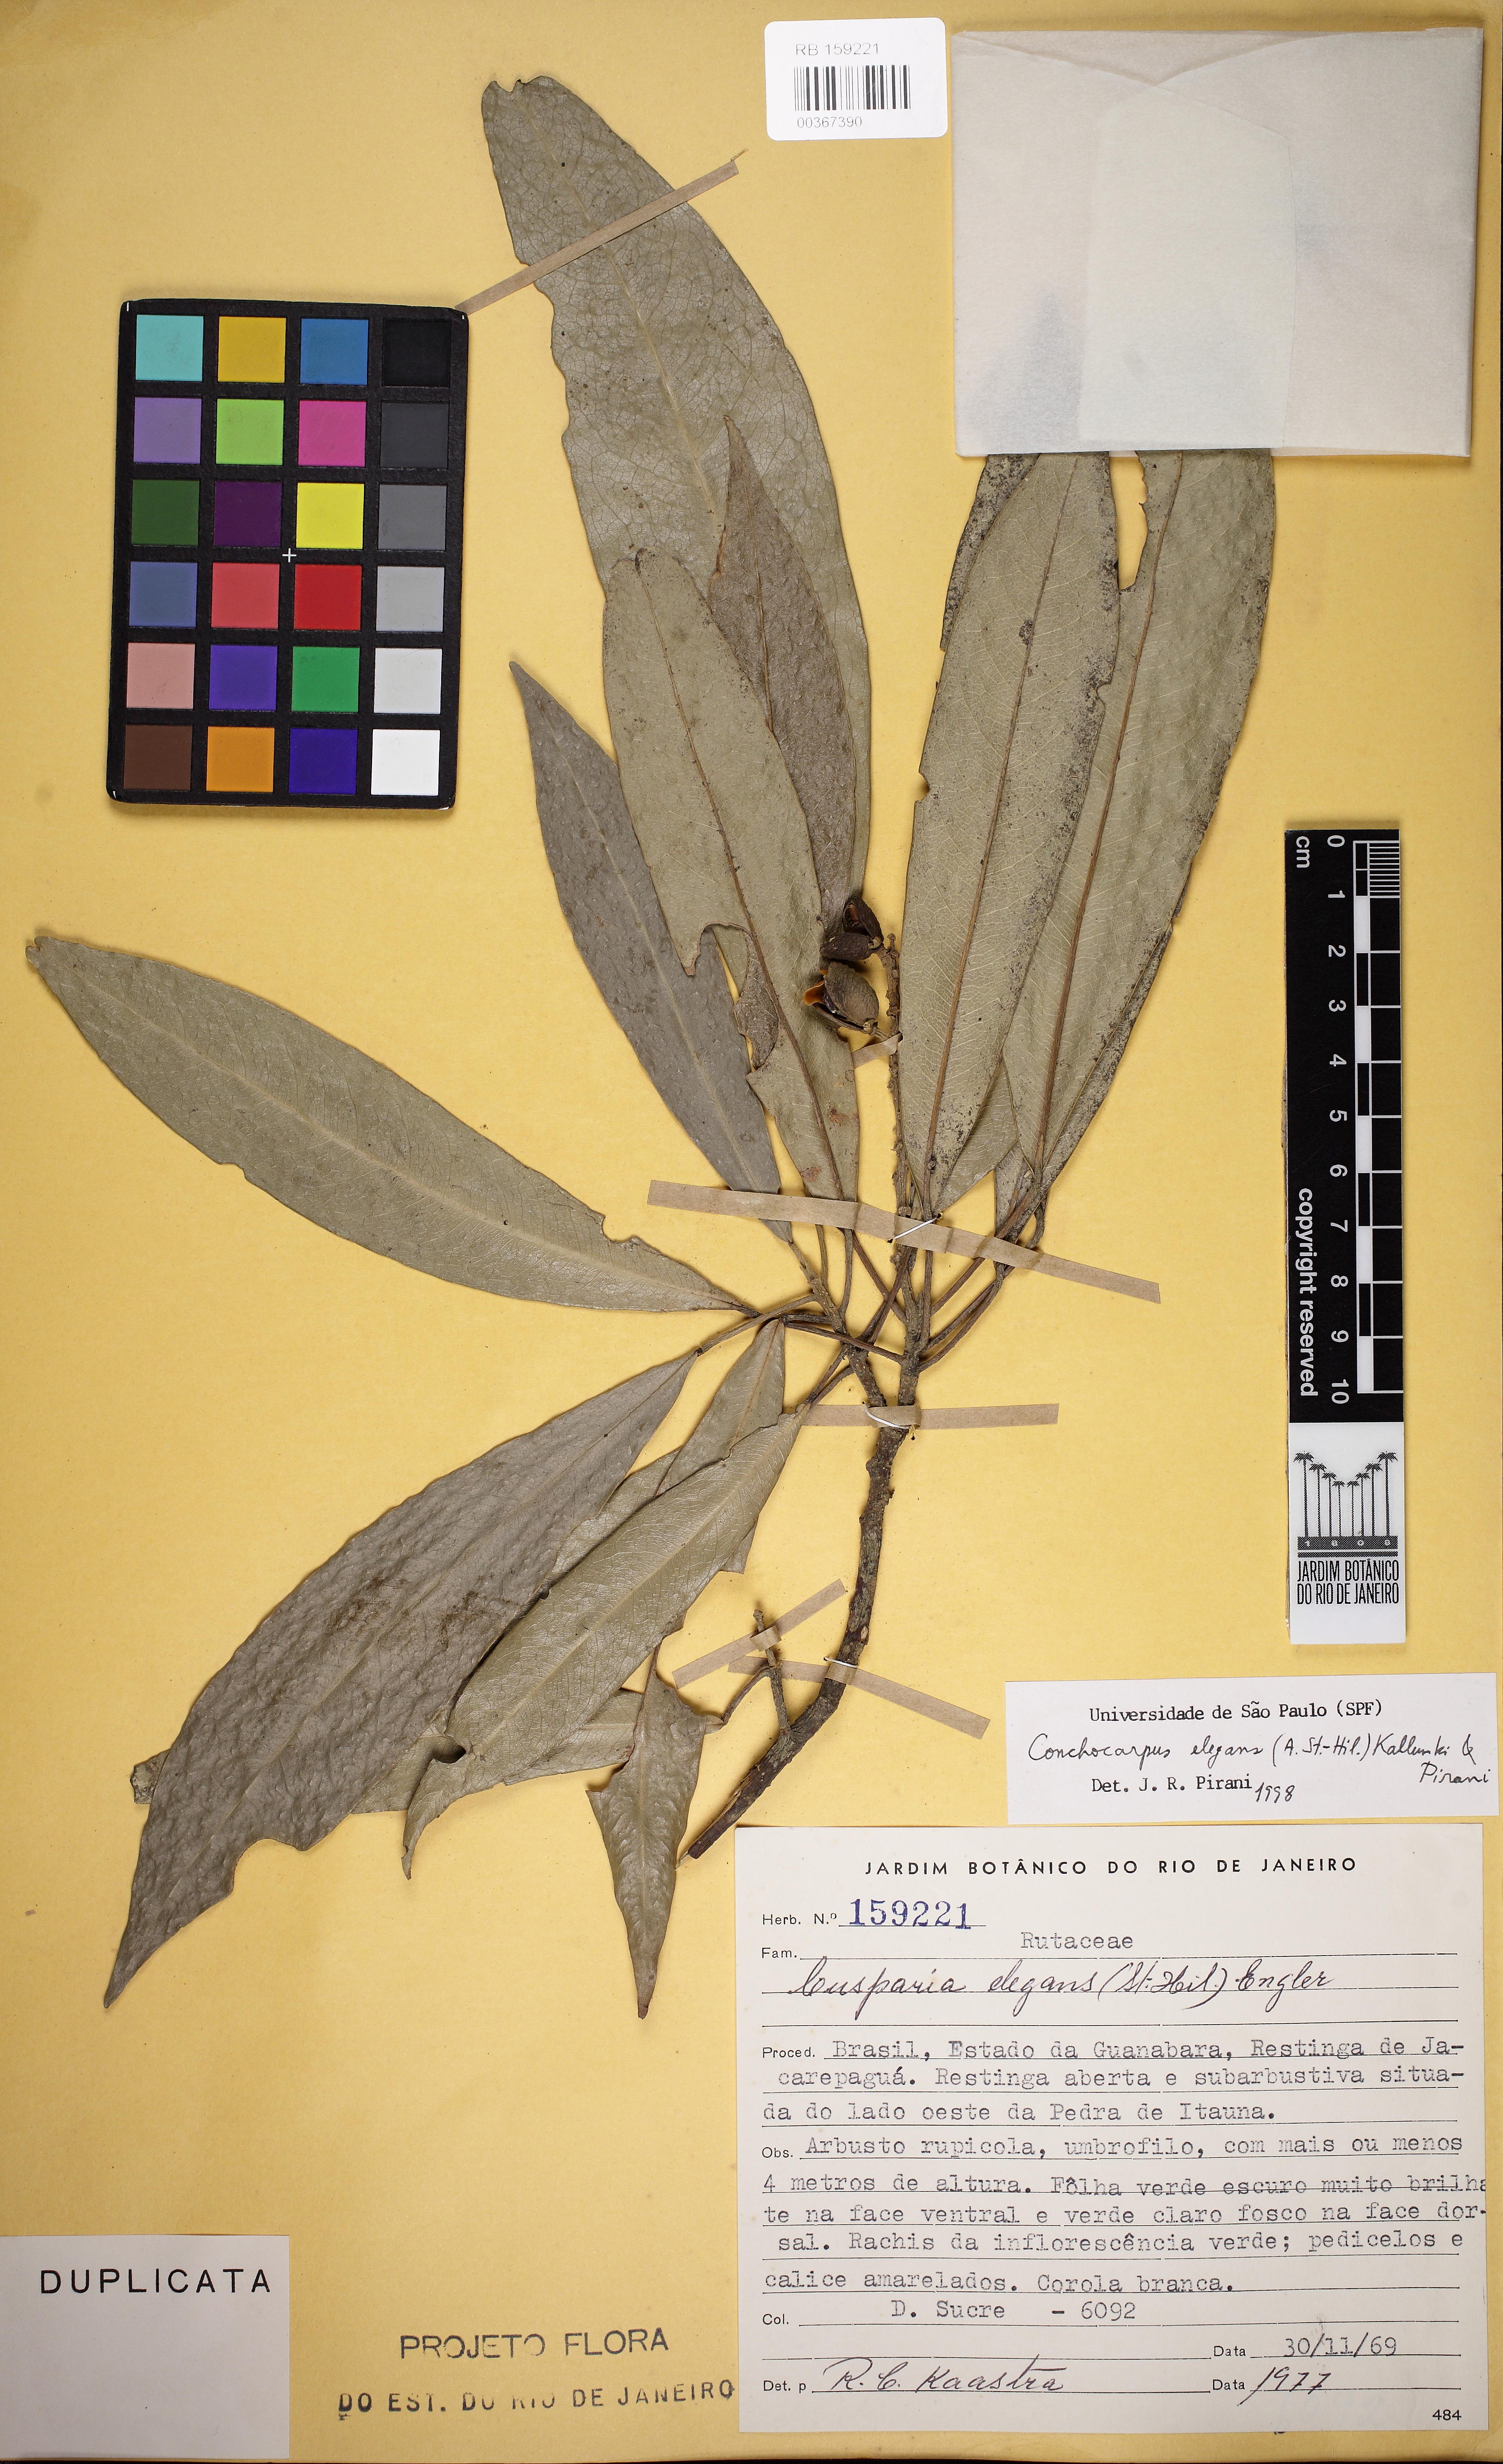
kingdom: Plantae
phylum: Tracheophyta
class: Magnoliopsida
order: Sapindales
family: Rutaceae
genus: Conchocarpus
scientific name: Conchocarpus elegans
